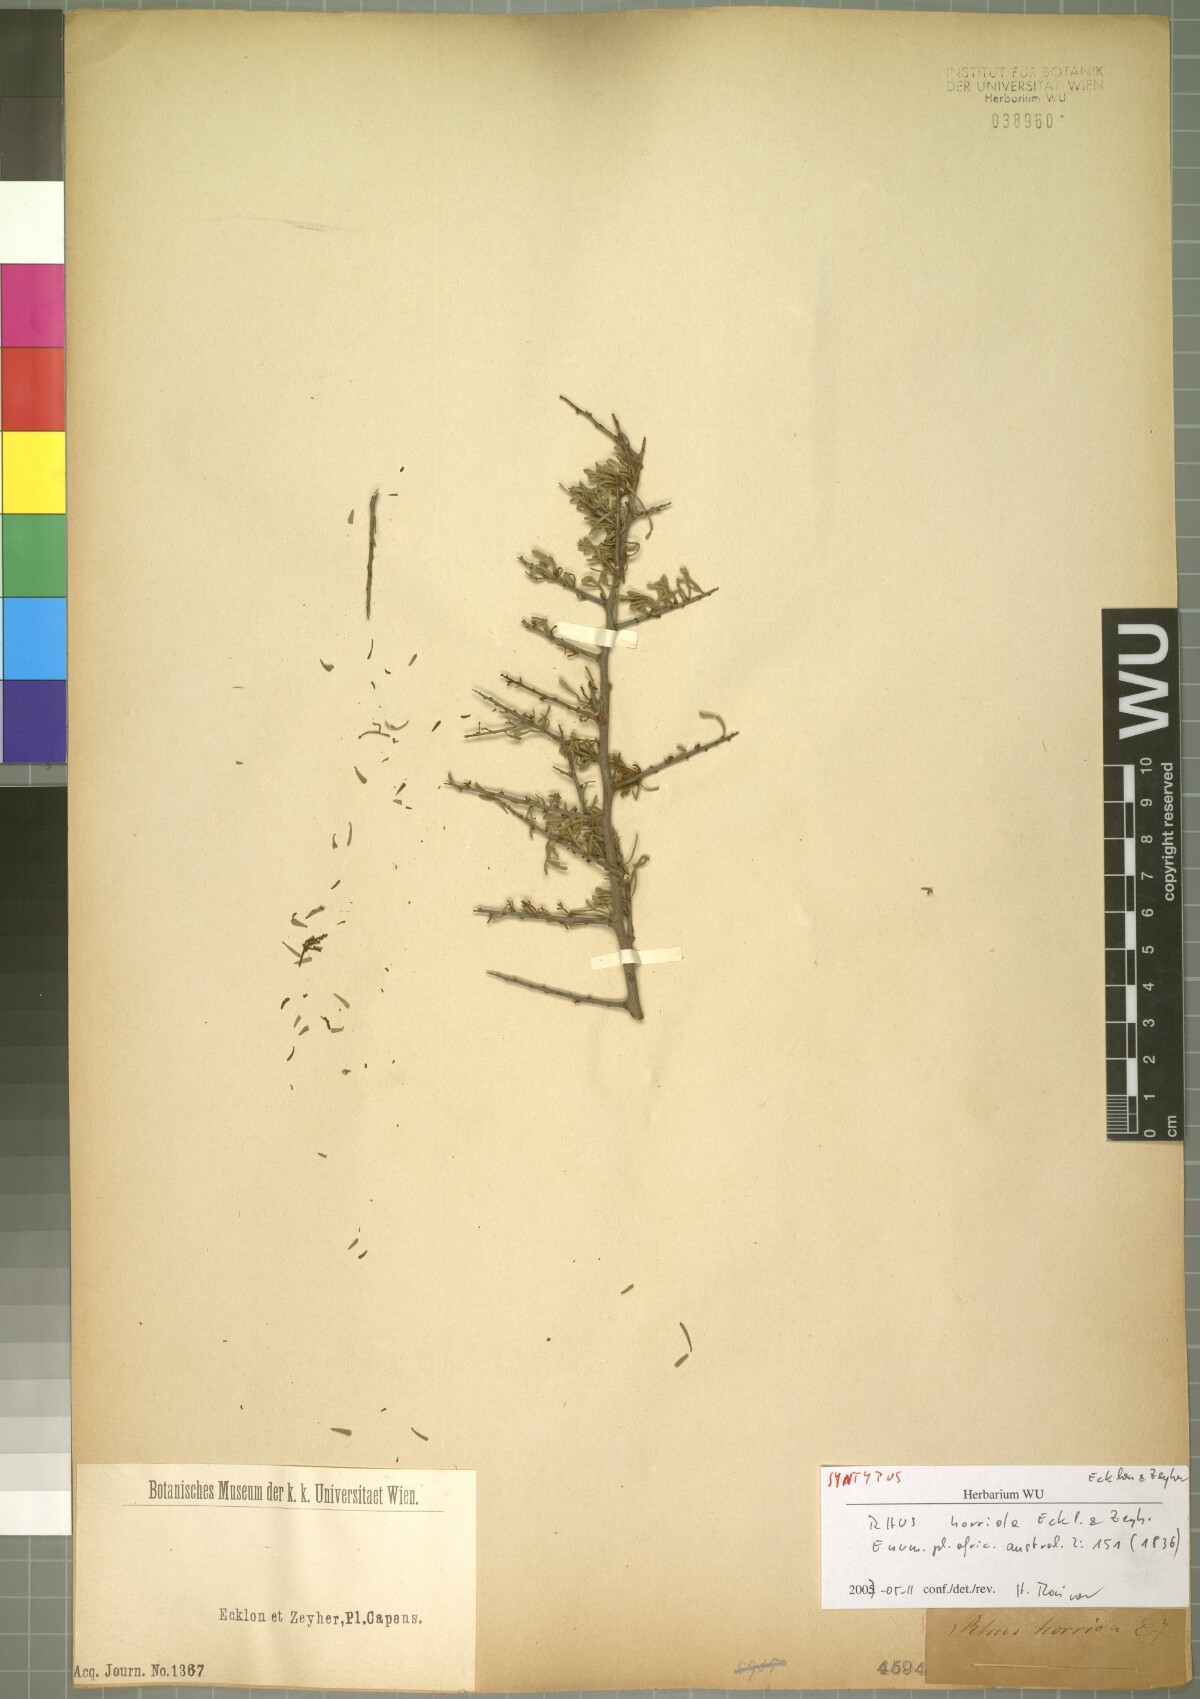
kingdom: Plantae
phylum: Tracheophyta
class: Magnoliopsida
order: Sapindales
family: Anacardiaceae
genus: Searsia
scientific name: Searsia horrida
